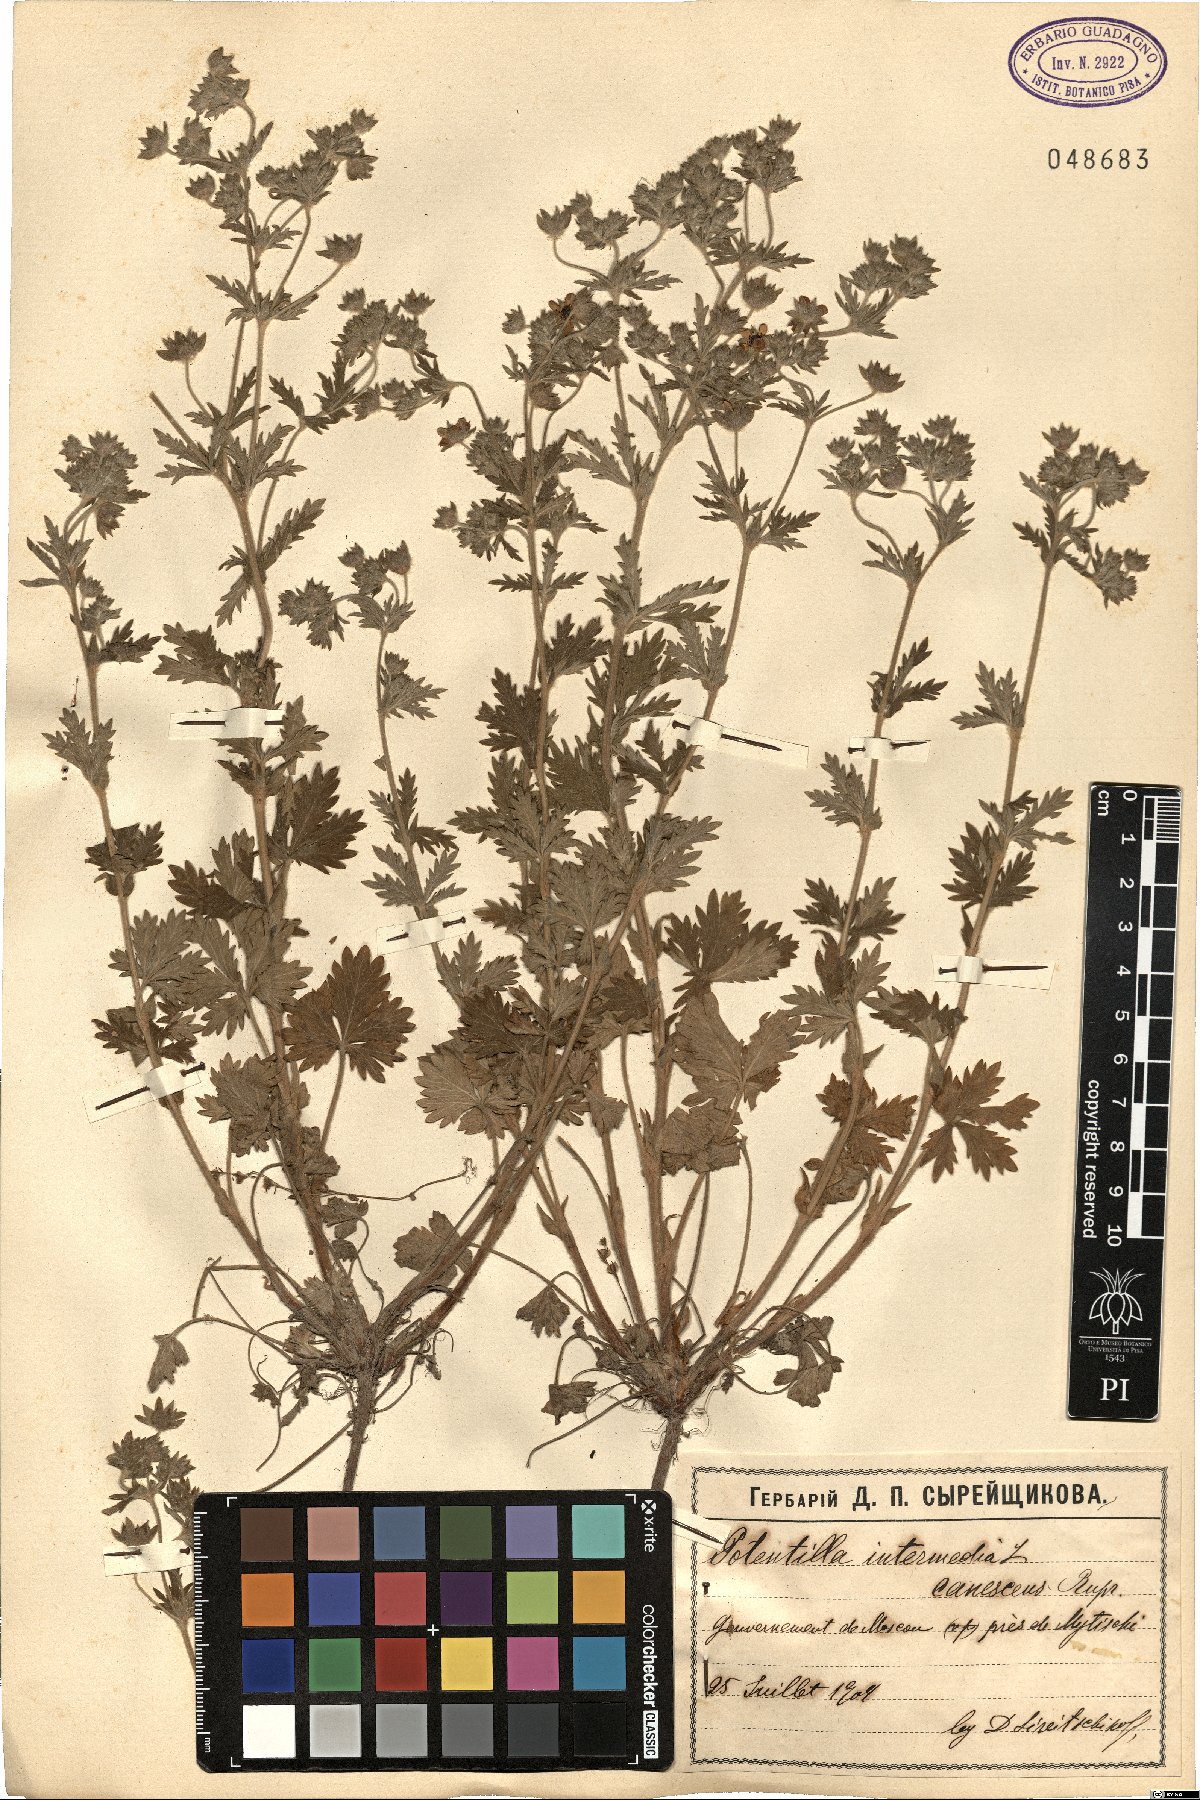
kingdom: Plantae
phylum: Tracheophyta
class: Magnoliopsida
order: Rosales
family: Rosaceae
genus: Potentilla
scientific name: Potentilla intermedia
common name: Downy cinquefoil
